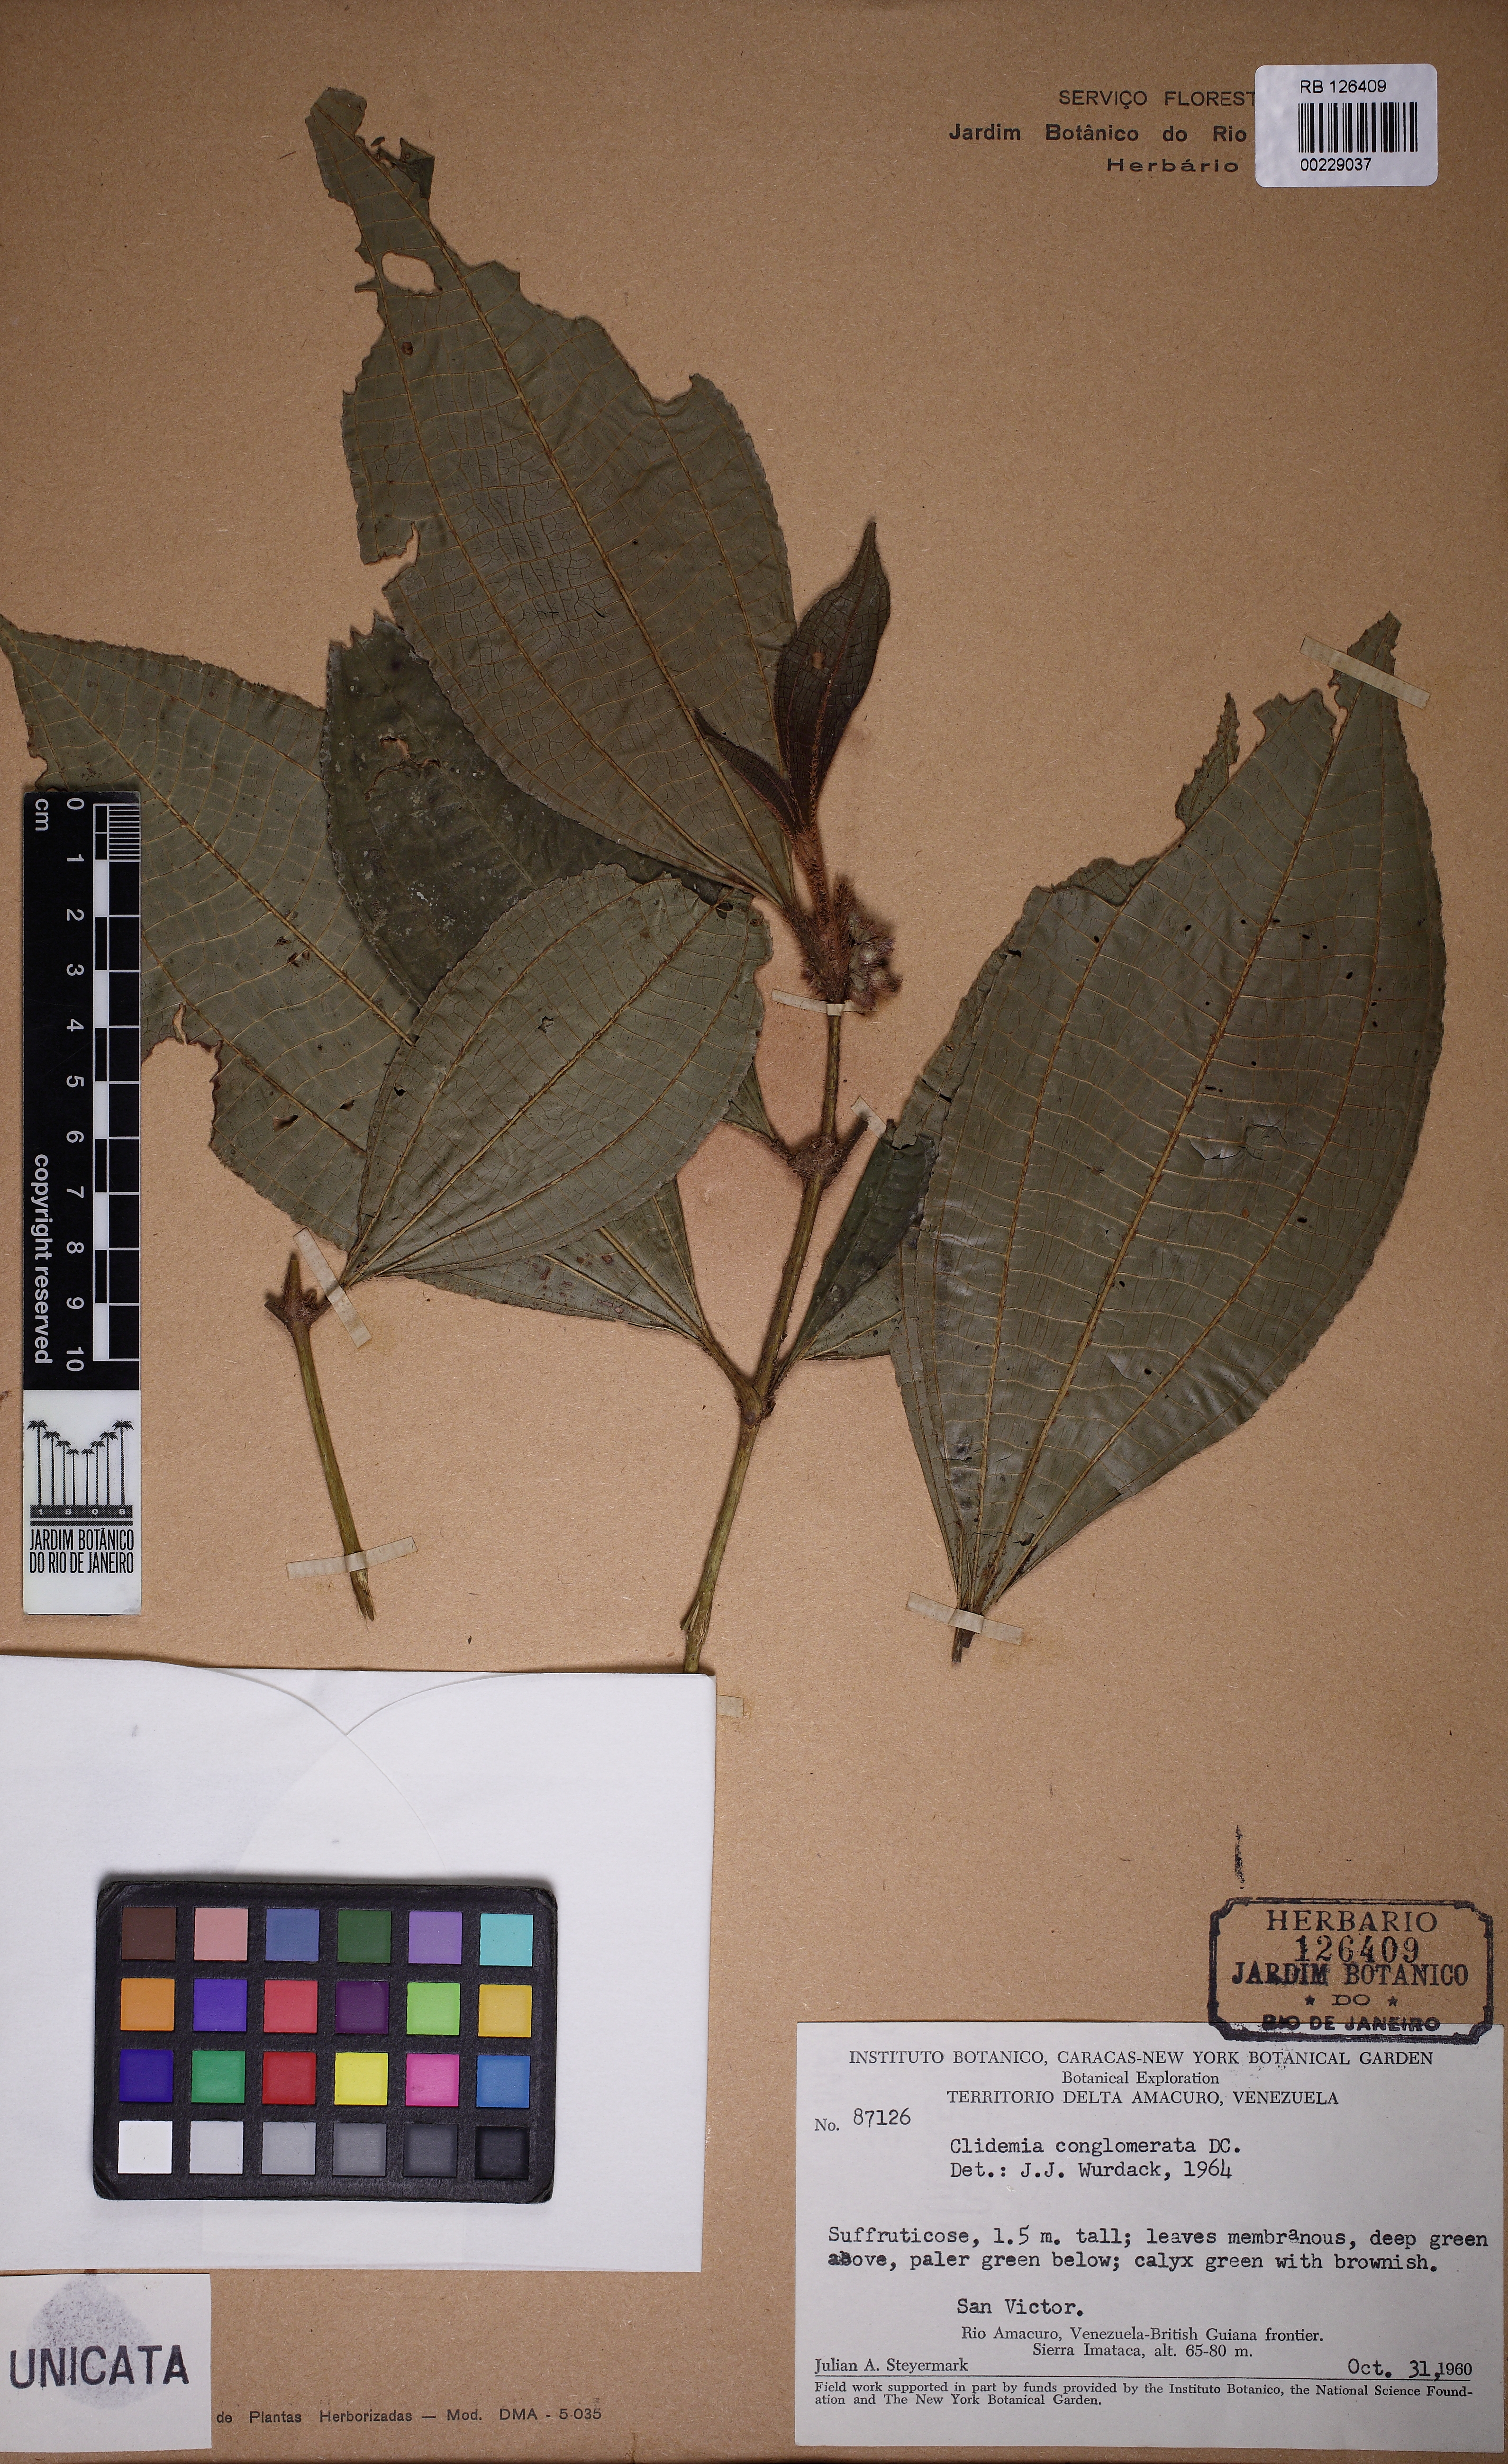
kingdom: Plantae
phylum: Tracheophyta
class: Magnoliopsida
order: Myrtales
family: Melastomataceae
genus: Miconia
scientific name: Miconia conglomerata
